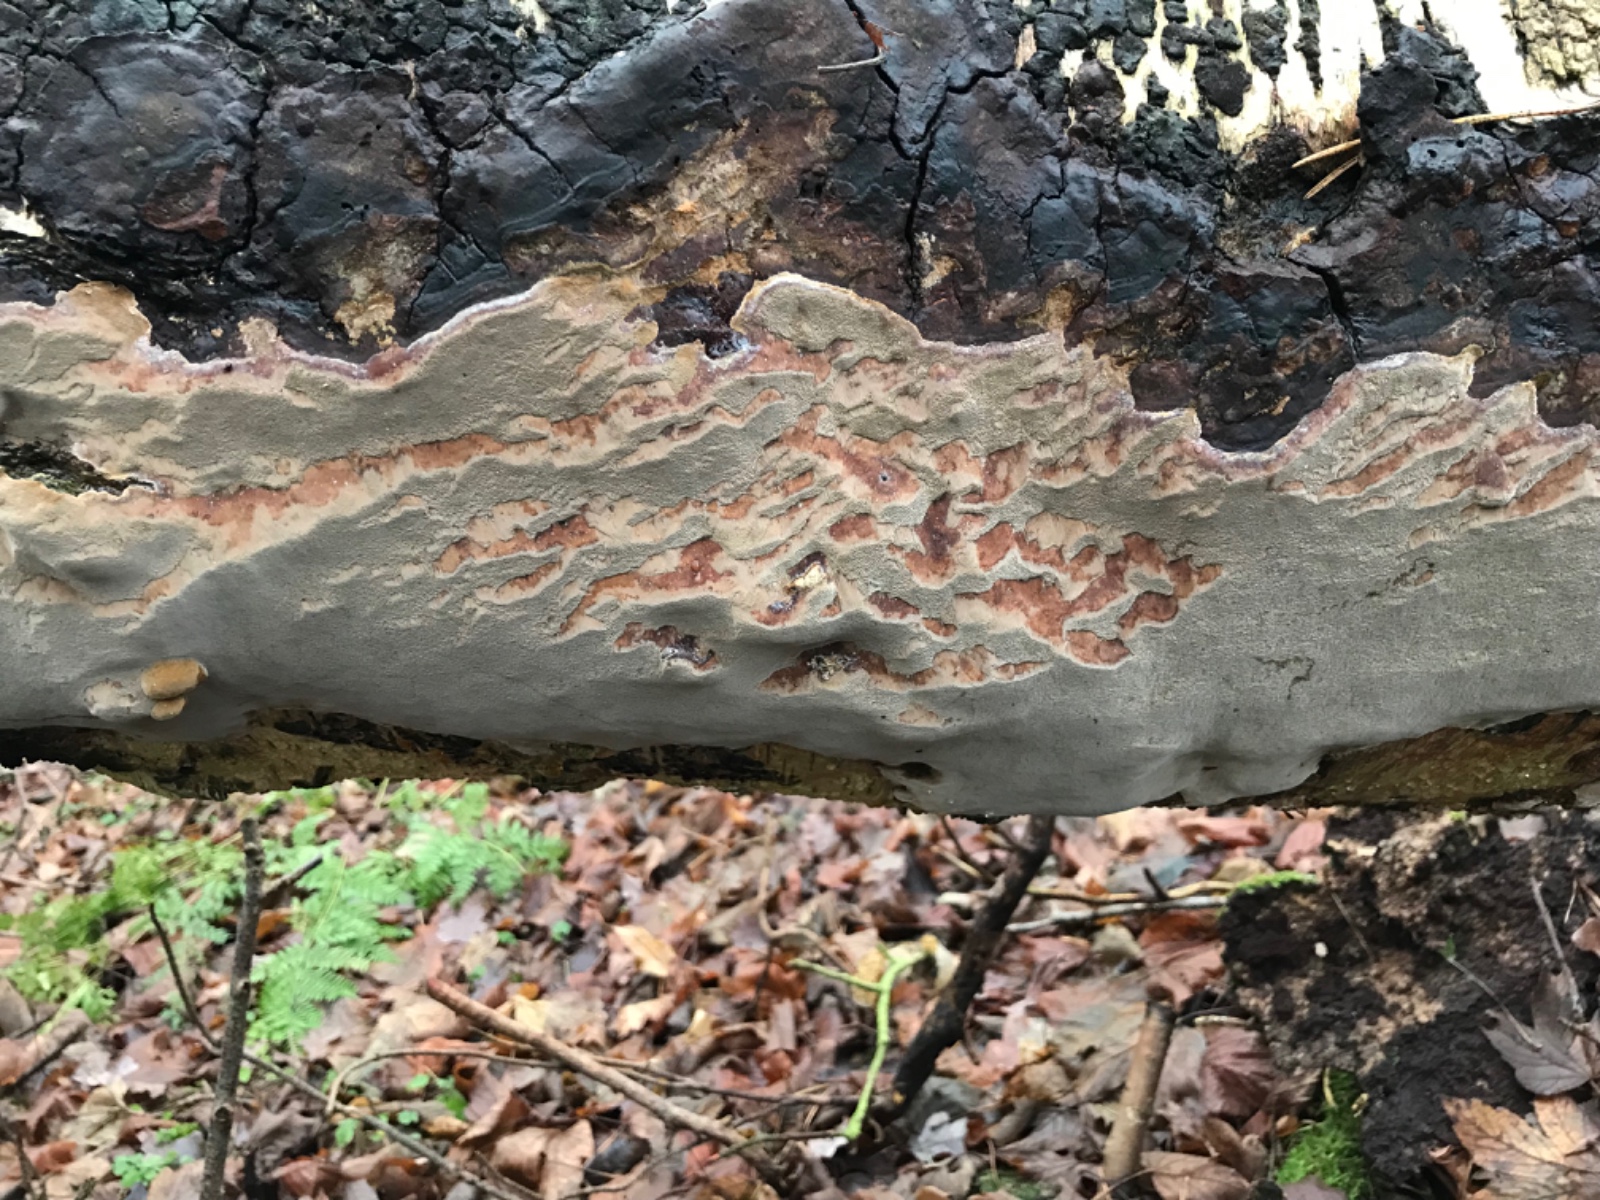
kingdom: Fungi
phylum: Basidiomycota
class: Agaricomycetes
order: Hymenochaetales
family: Hymenochaetaceae
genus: Phellinus
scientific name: Phellinus laevigatus
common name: glat ildporesvamp
